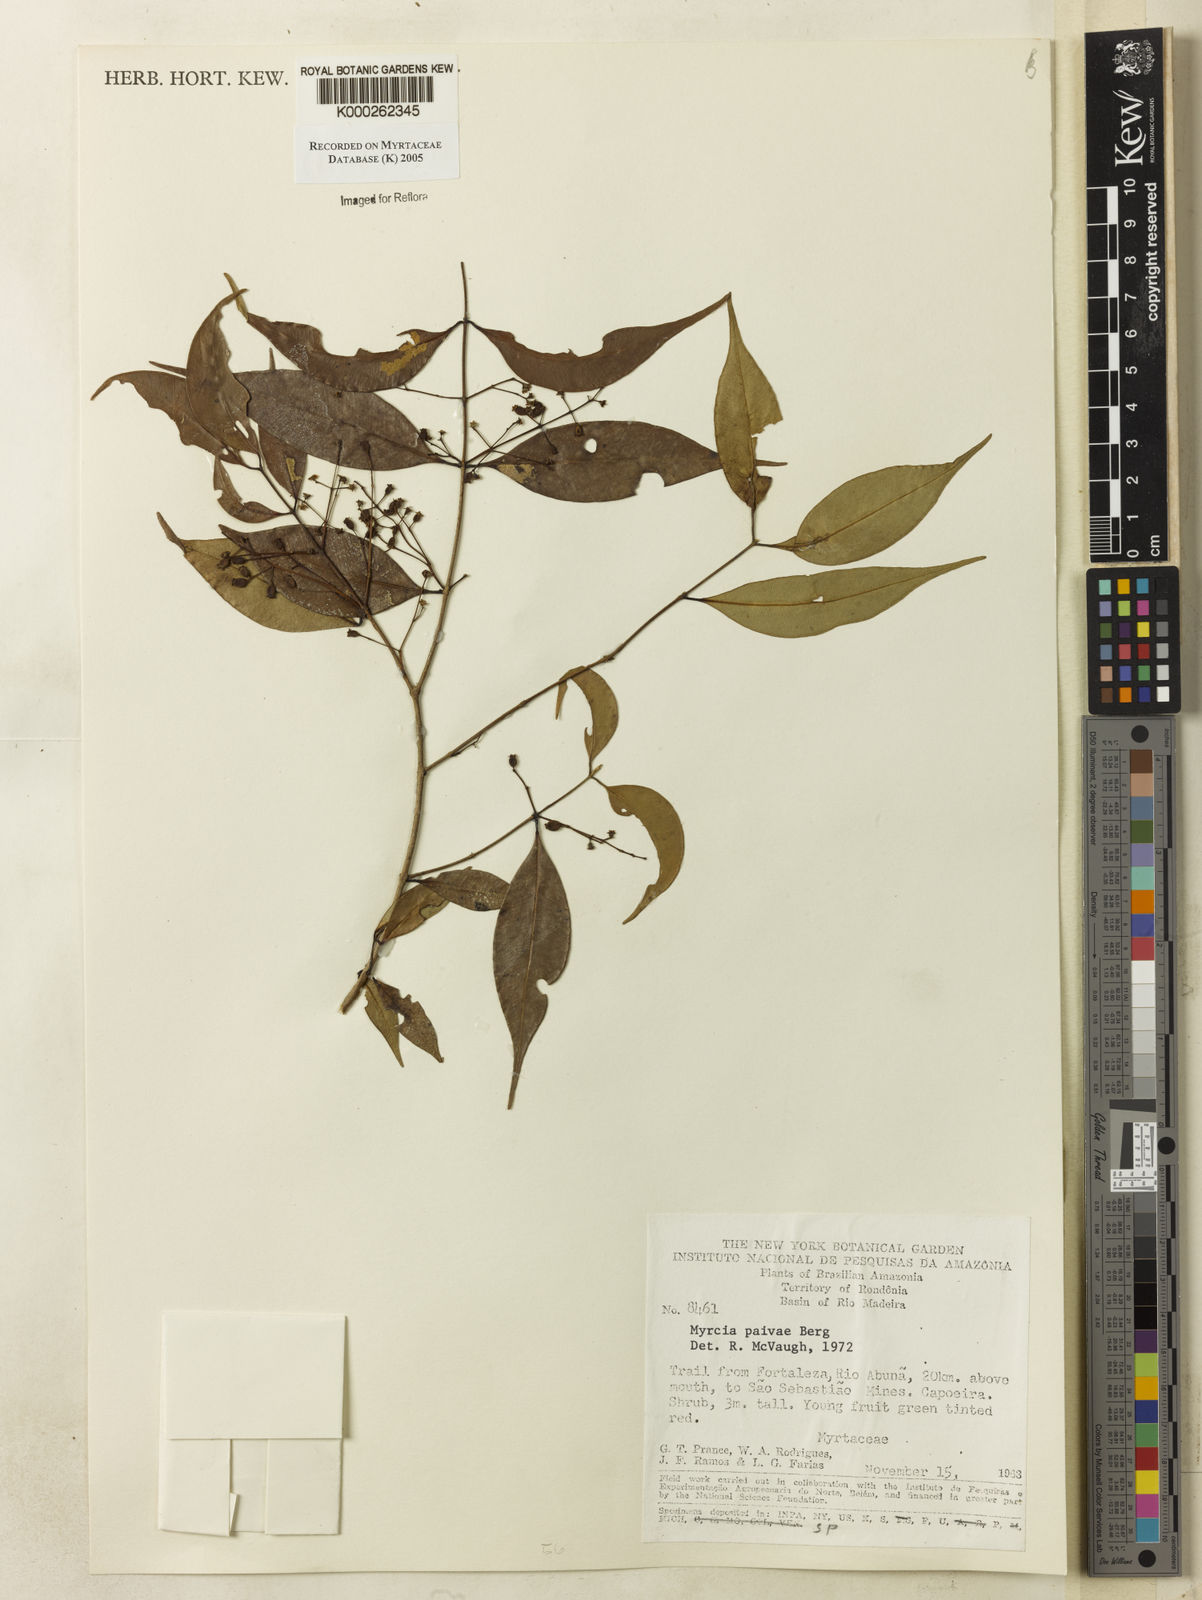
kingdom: Plantae
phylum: Tracheophyta
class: Magnoliopsida
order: Myrtales
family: Myrtaceae
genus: Myrcia
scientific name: Myrcia paivae
